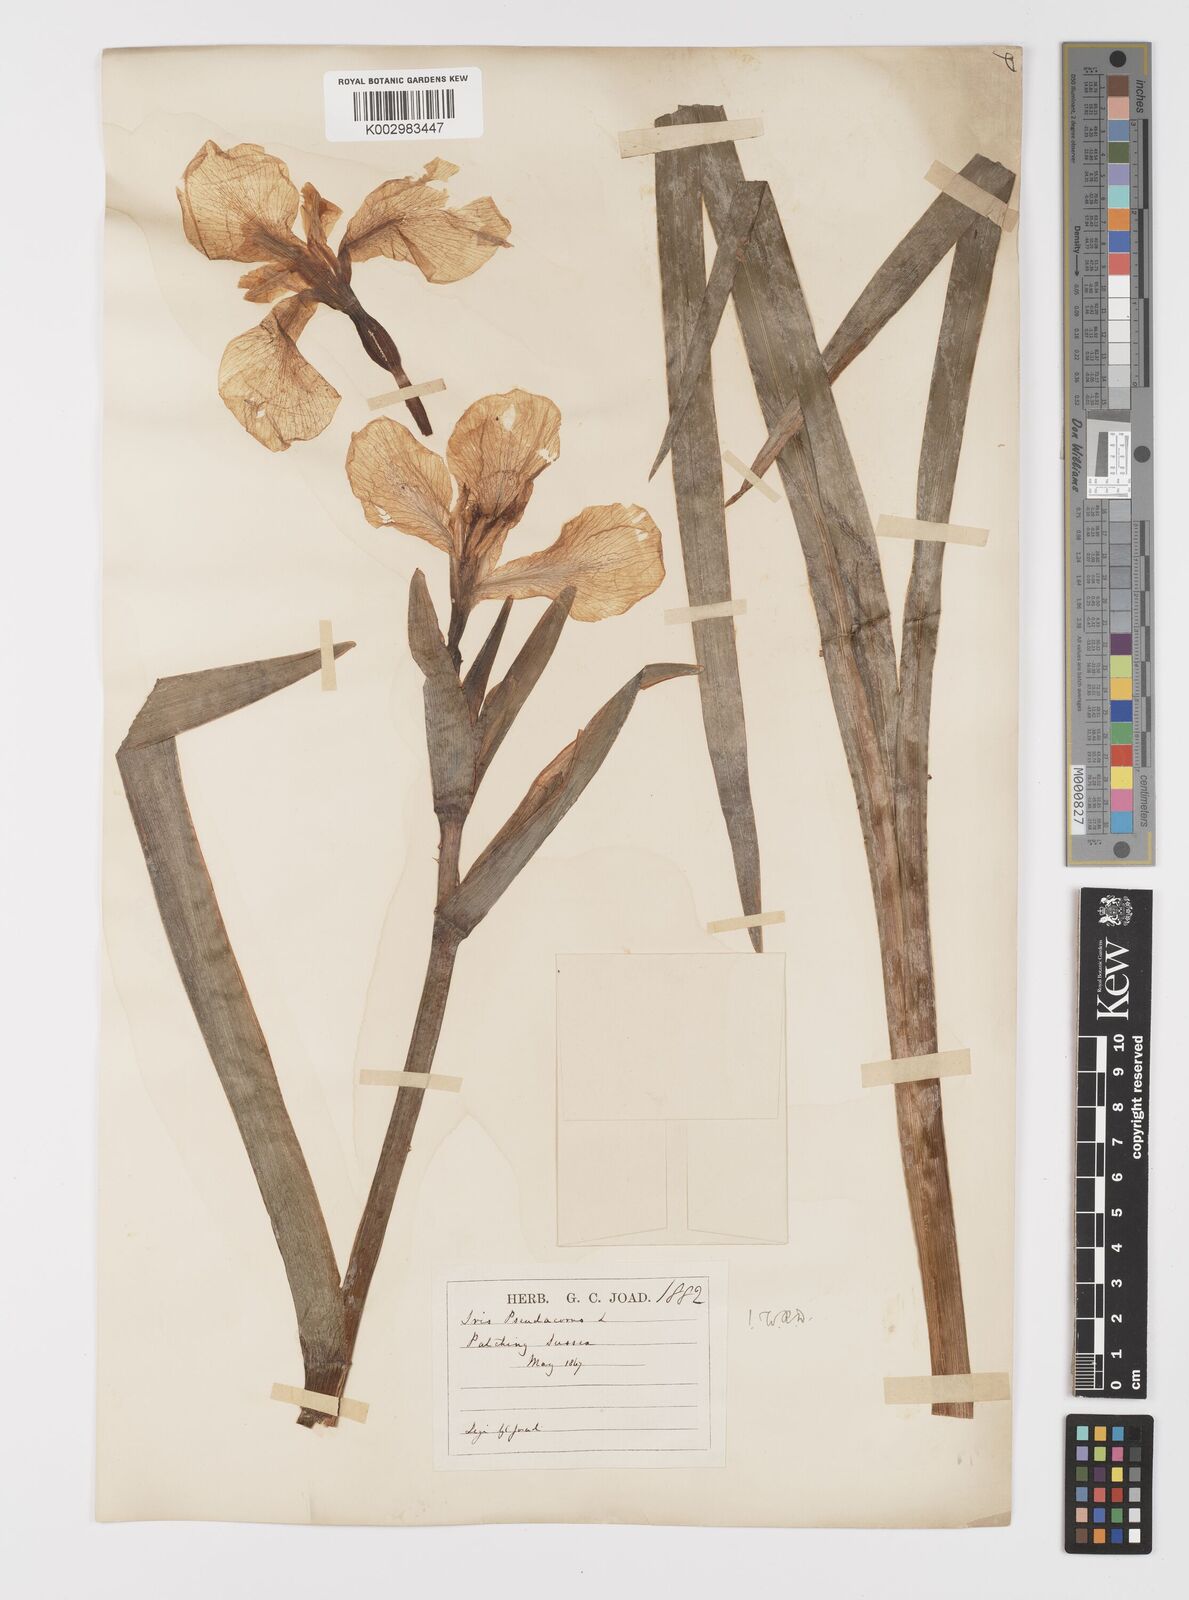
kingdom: Plantae
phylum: Tracheophyta
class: Liliopsida
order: Asparagales
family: Iridaceae
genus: Iris
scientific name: Iris pseudacorus
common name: Yellow flag
